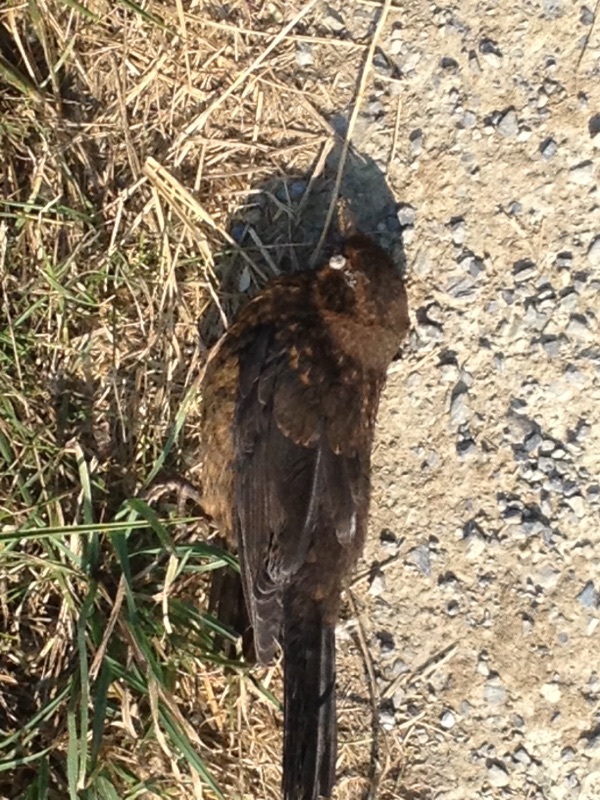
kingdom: Animalia
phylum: Chordata
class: Aves
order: Passeriformes
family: Turdidae
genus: Turdus
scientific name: Turdus merula
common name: Common blackbird
